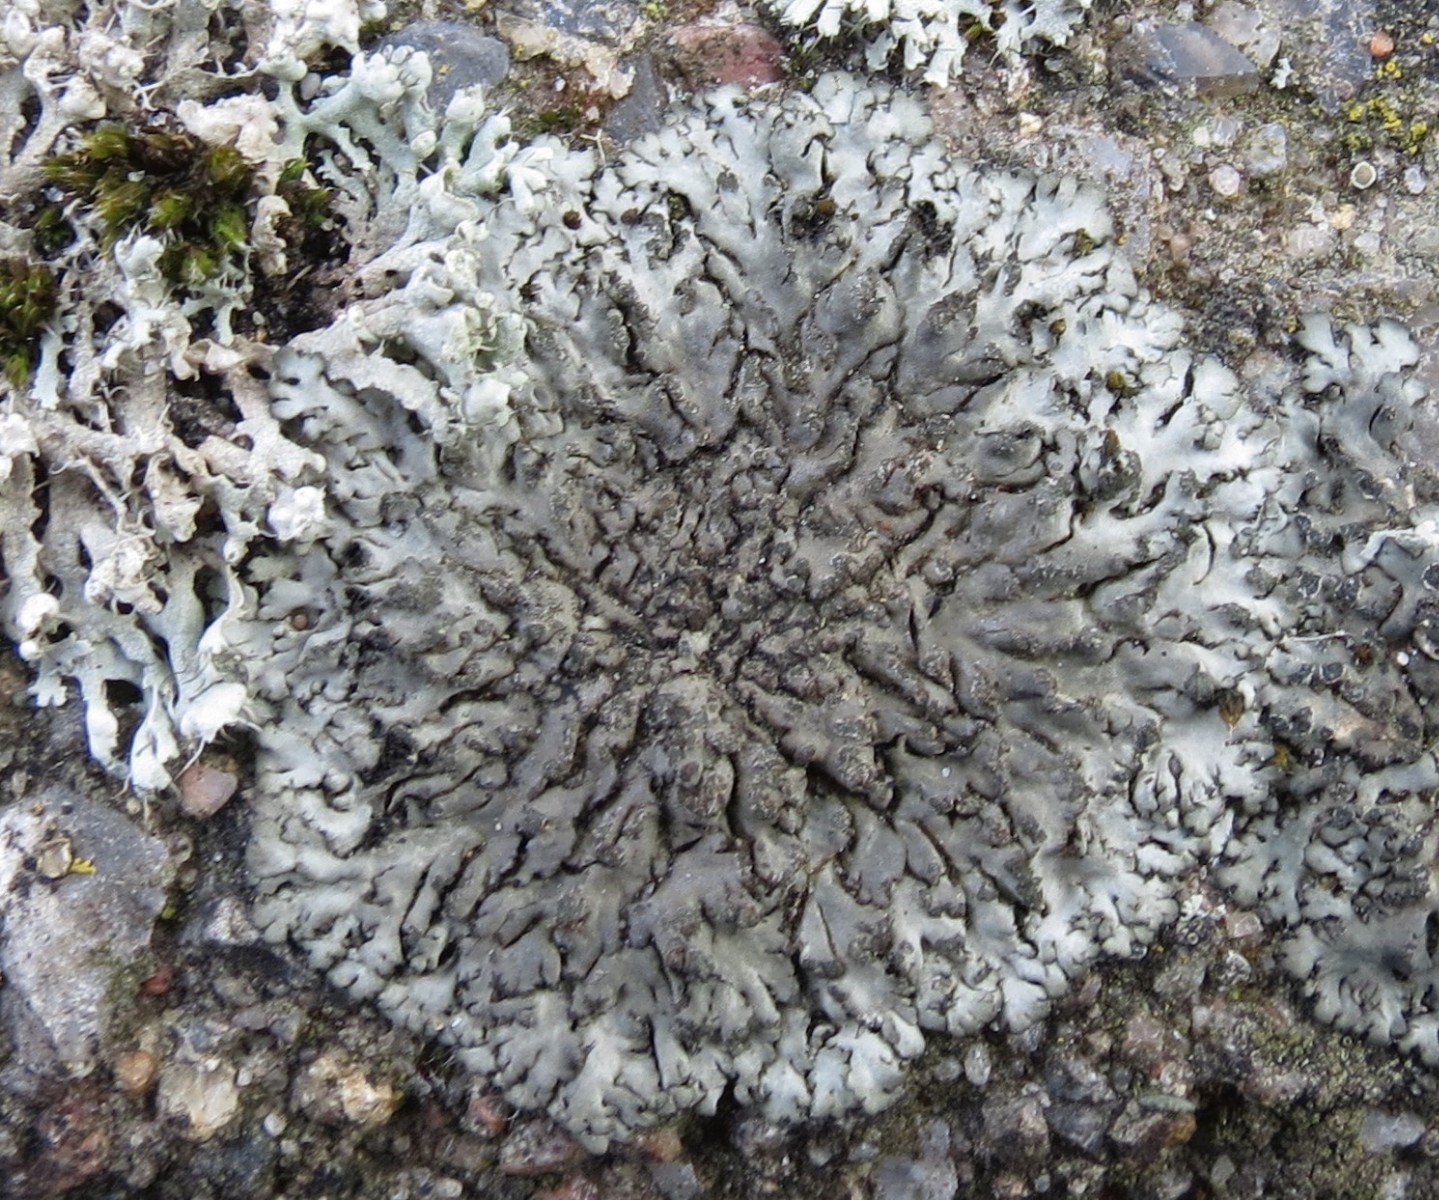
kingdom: Fungi
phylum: Ascomycota
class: Lecanoromycetes
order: Caliciales
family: Physciaceae
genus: Phaeophyscia
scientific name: Phaeophyscia orbicularis
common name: grågrøn rosetlav
